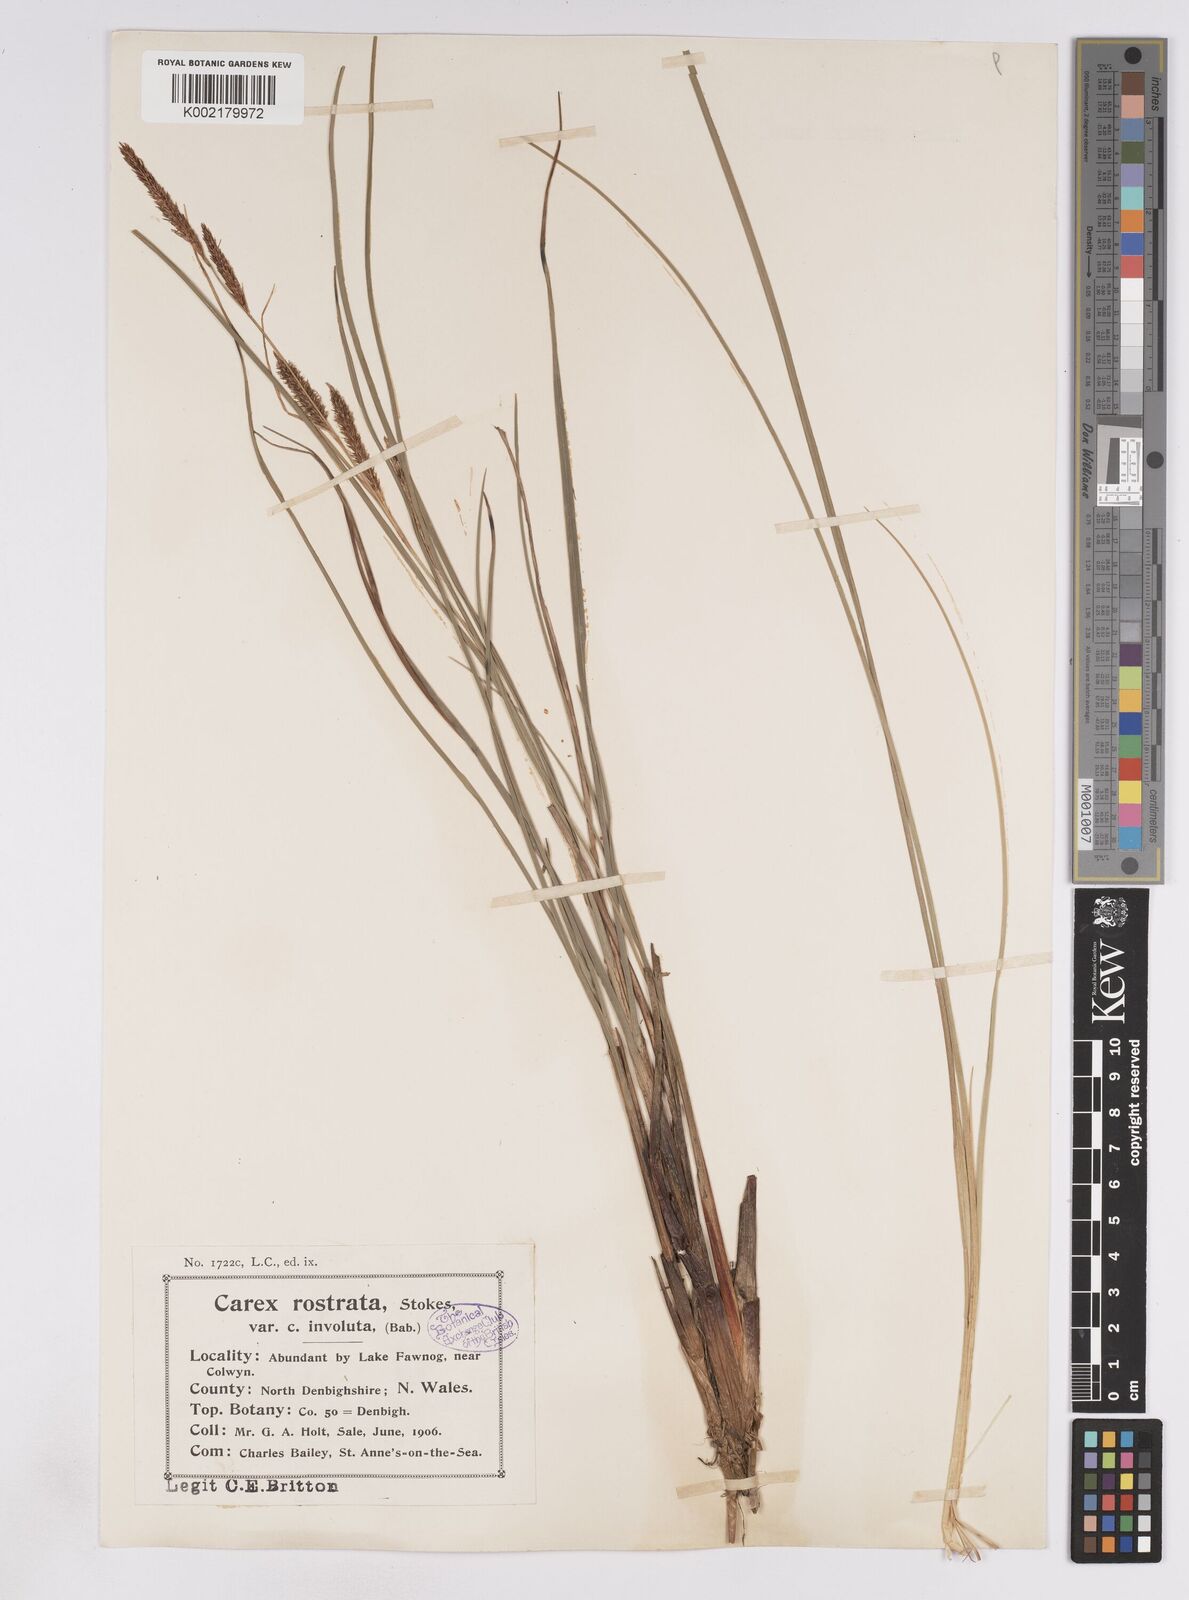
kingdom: Plantae
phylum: Tracheophyta
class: Liliopsida
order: Poales
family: Cyperaceae
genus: Carex
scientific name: Carex rostrata
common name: Bottle sedge
